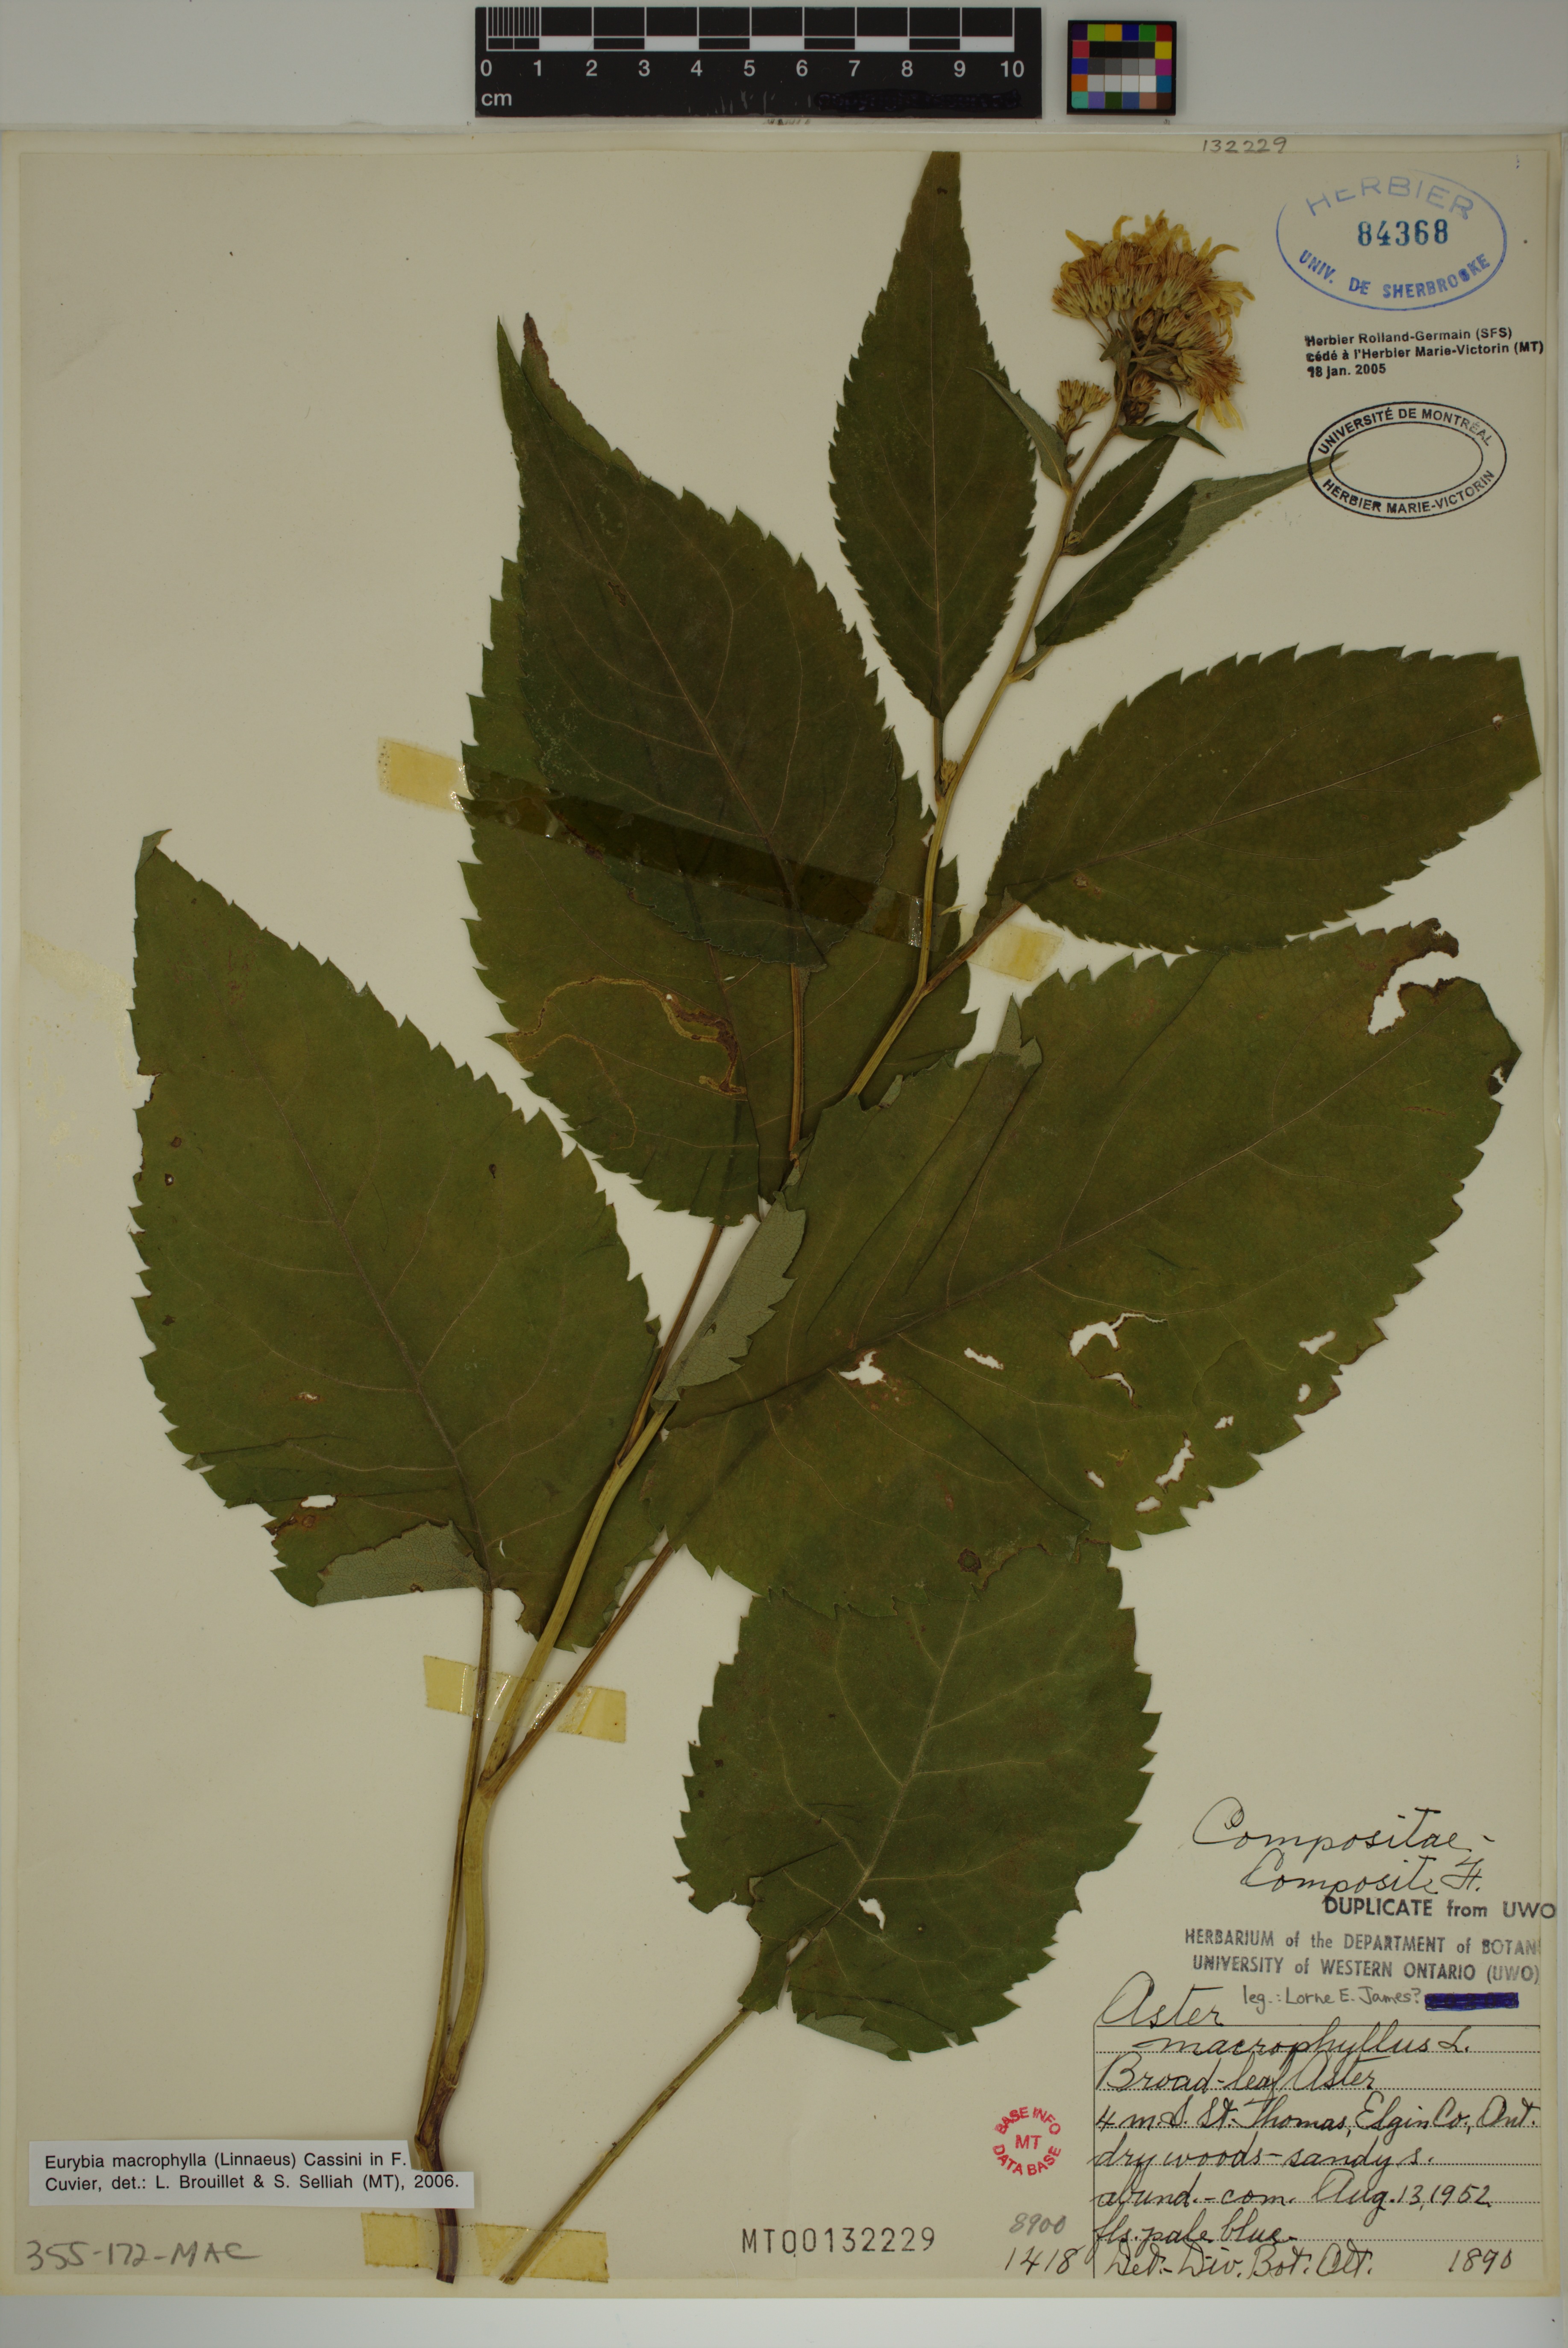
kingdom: Plantae
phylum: Tracheophyta
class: Magnoliopsida
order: Asterales
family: Asteraceae
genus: Eurybia
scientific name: Eurybia macrophylla
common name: Big-leaved aster
